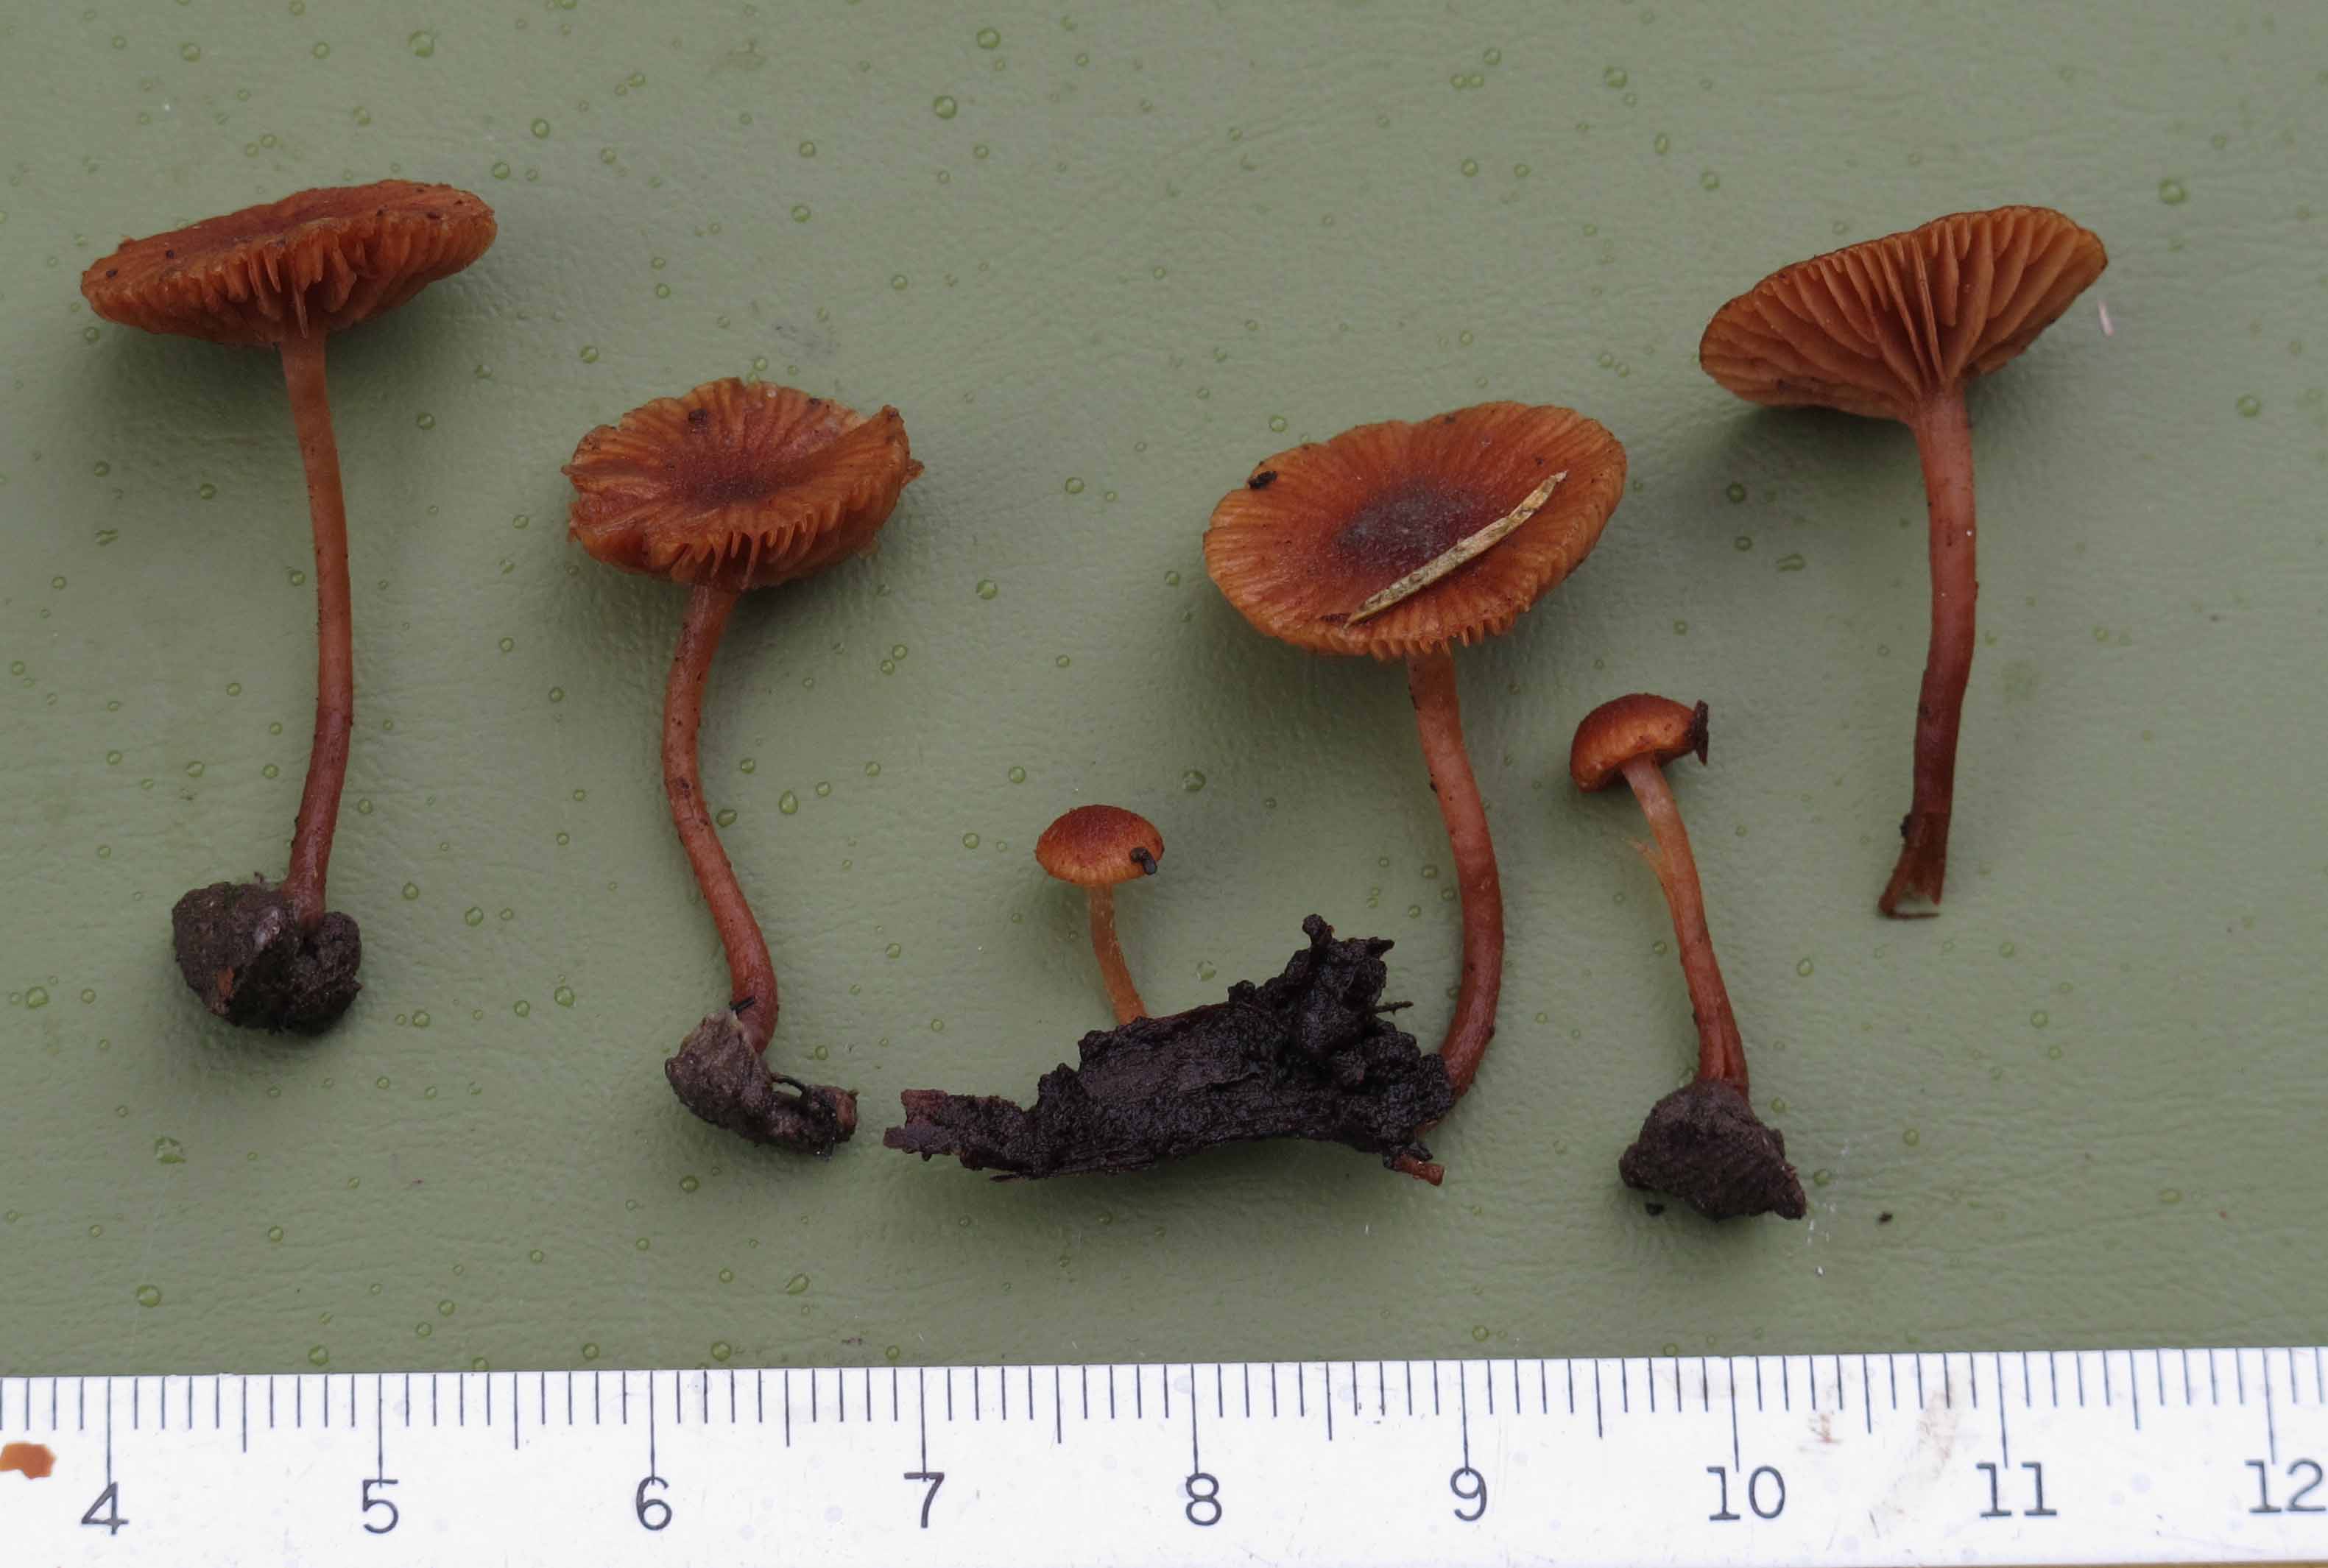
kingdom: Fungi
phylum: Basidiomycota
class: Agaricomycetes
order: Agaricales
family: Tubariaceae
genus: Flammulaster
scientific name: Flammulaster ferrugineus
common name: rustbrun grynskælhat
